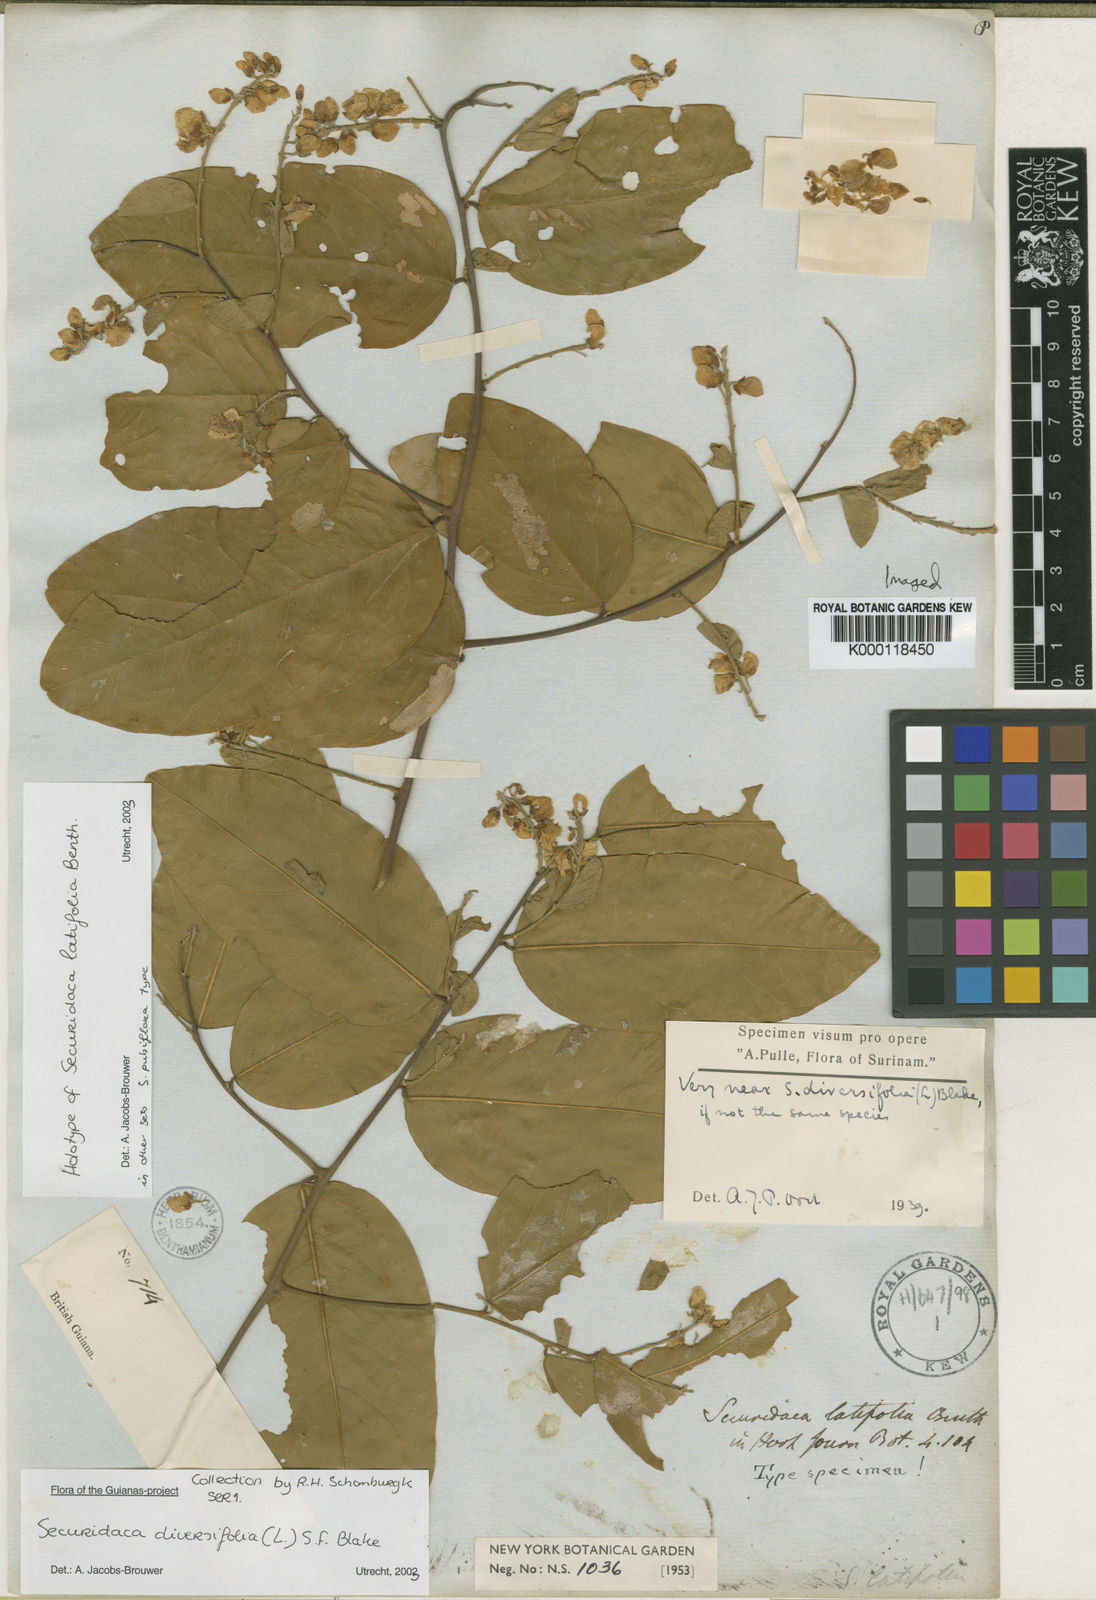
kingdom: Plantae
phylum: Tracheophyta
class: Magnoliopsida
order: Fabales
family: Polygalaceae
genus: Securidaca
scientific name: Securidaca diversifolia
